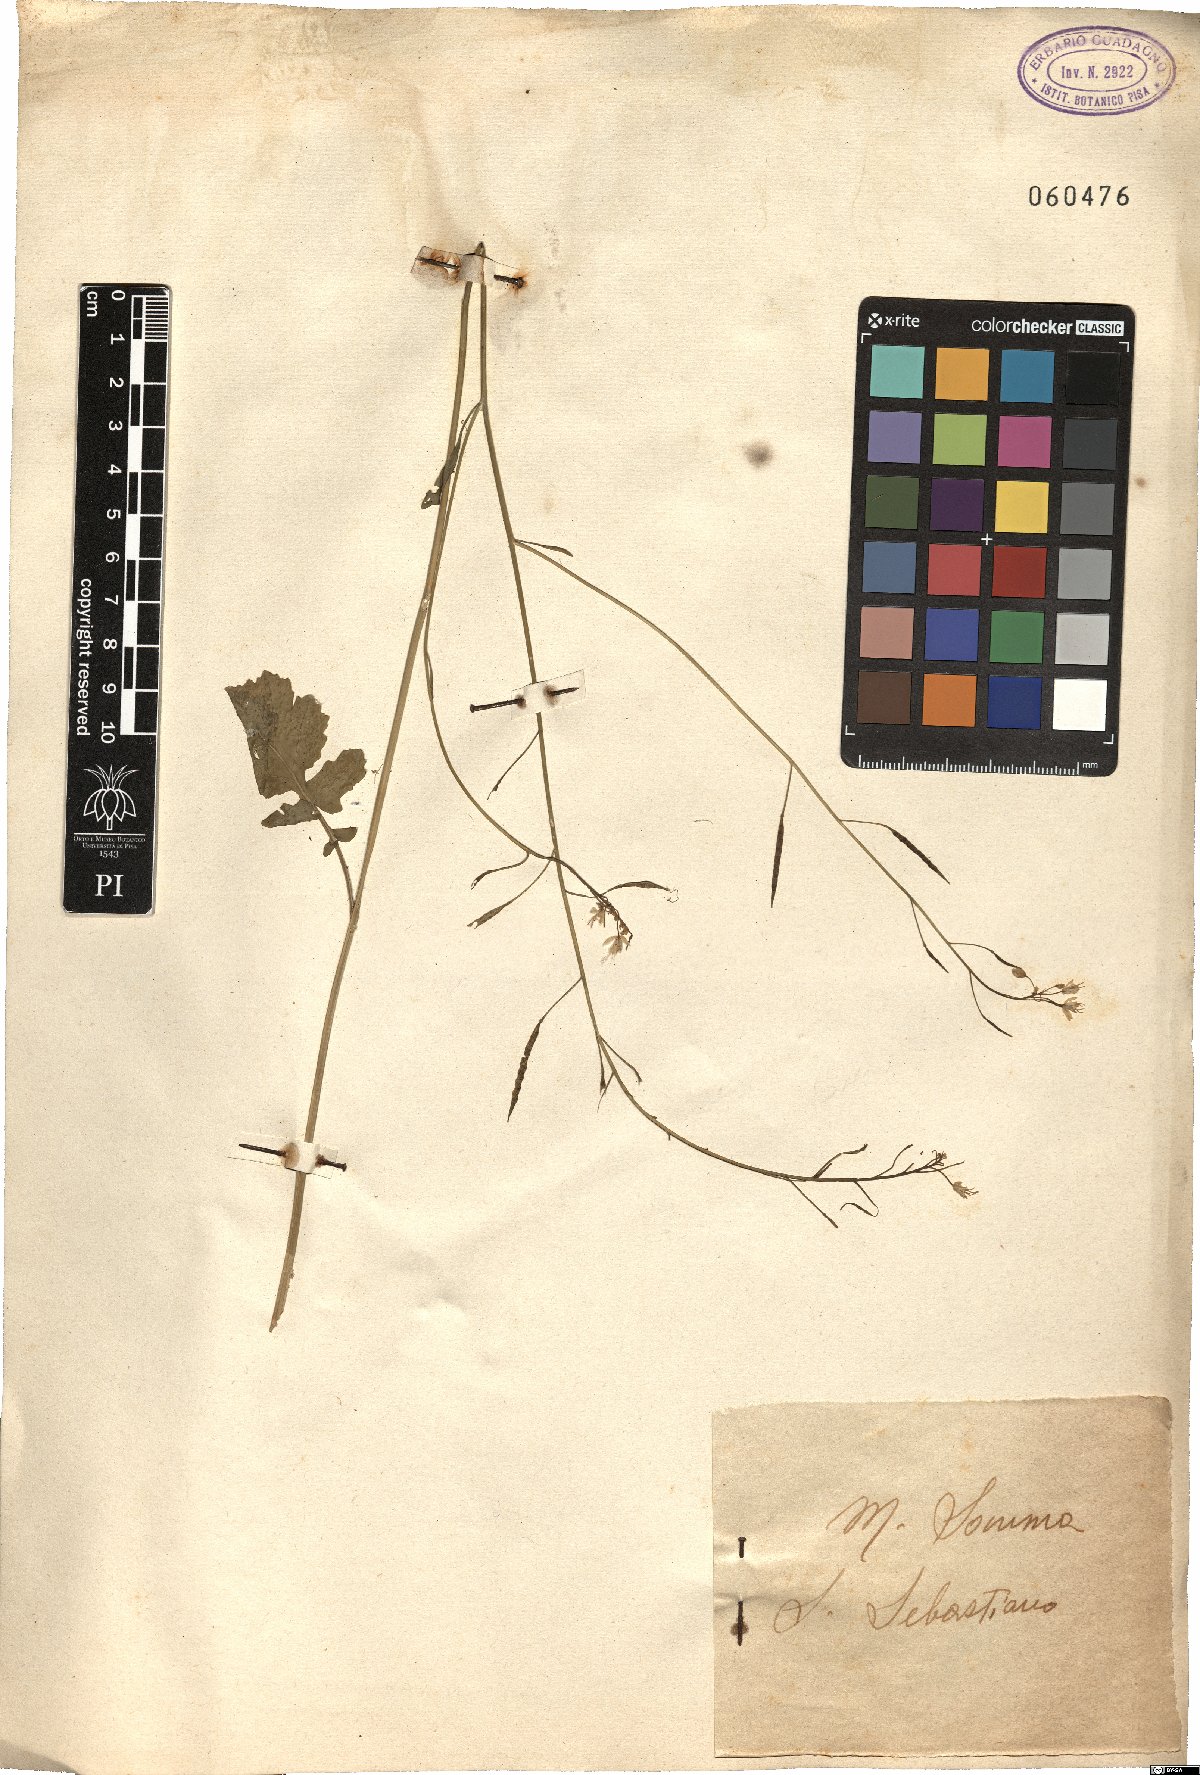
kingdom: Plantae
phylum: Tracheophyta
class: Magnoliopsida
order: Brassicales
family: Brassicaceae
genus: Brassica
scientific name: Brassica
